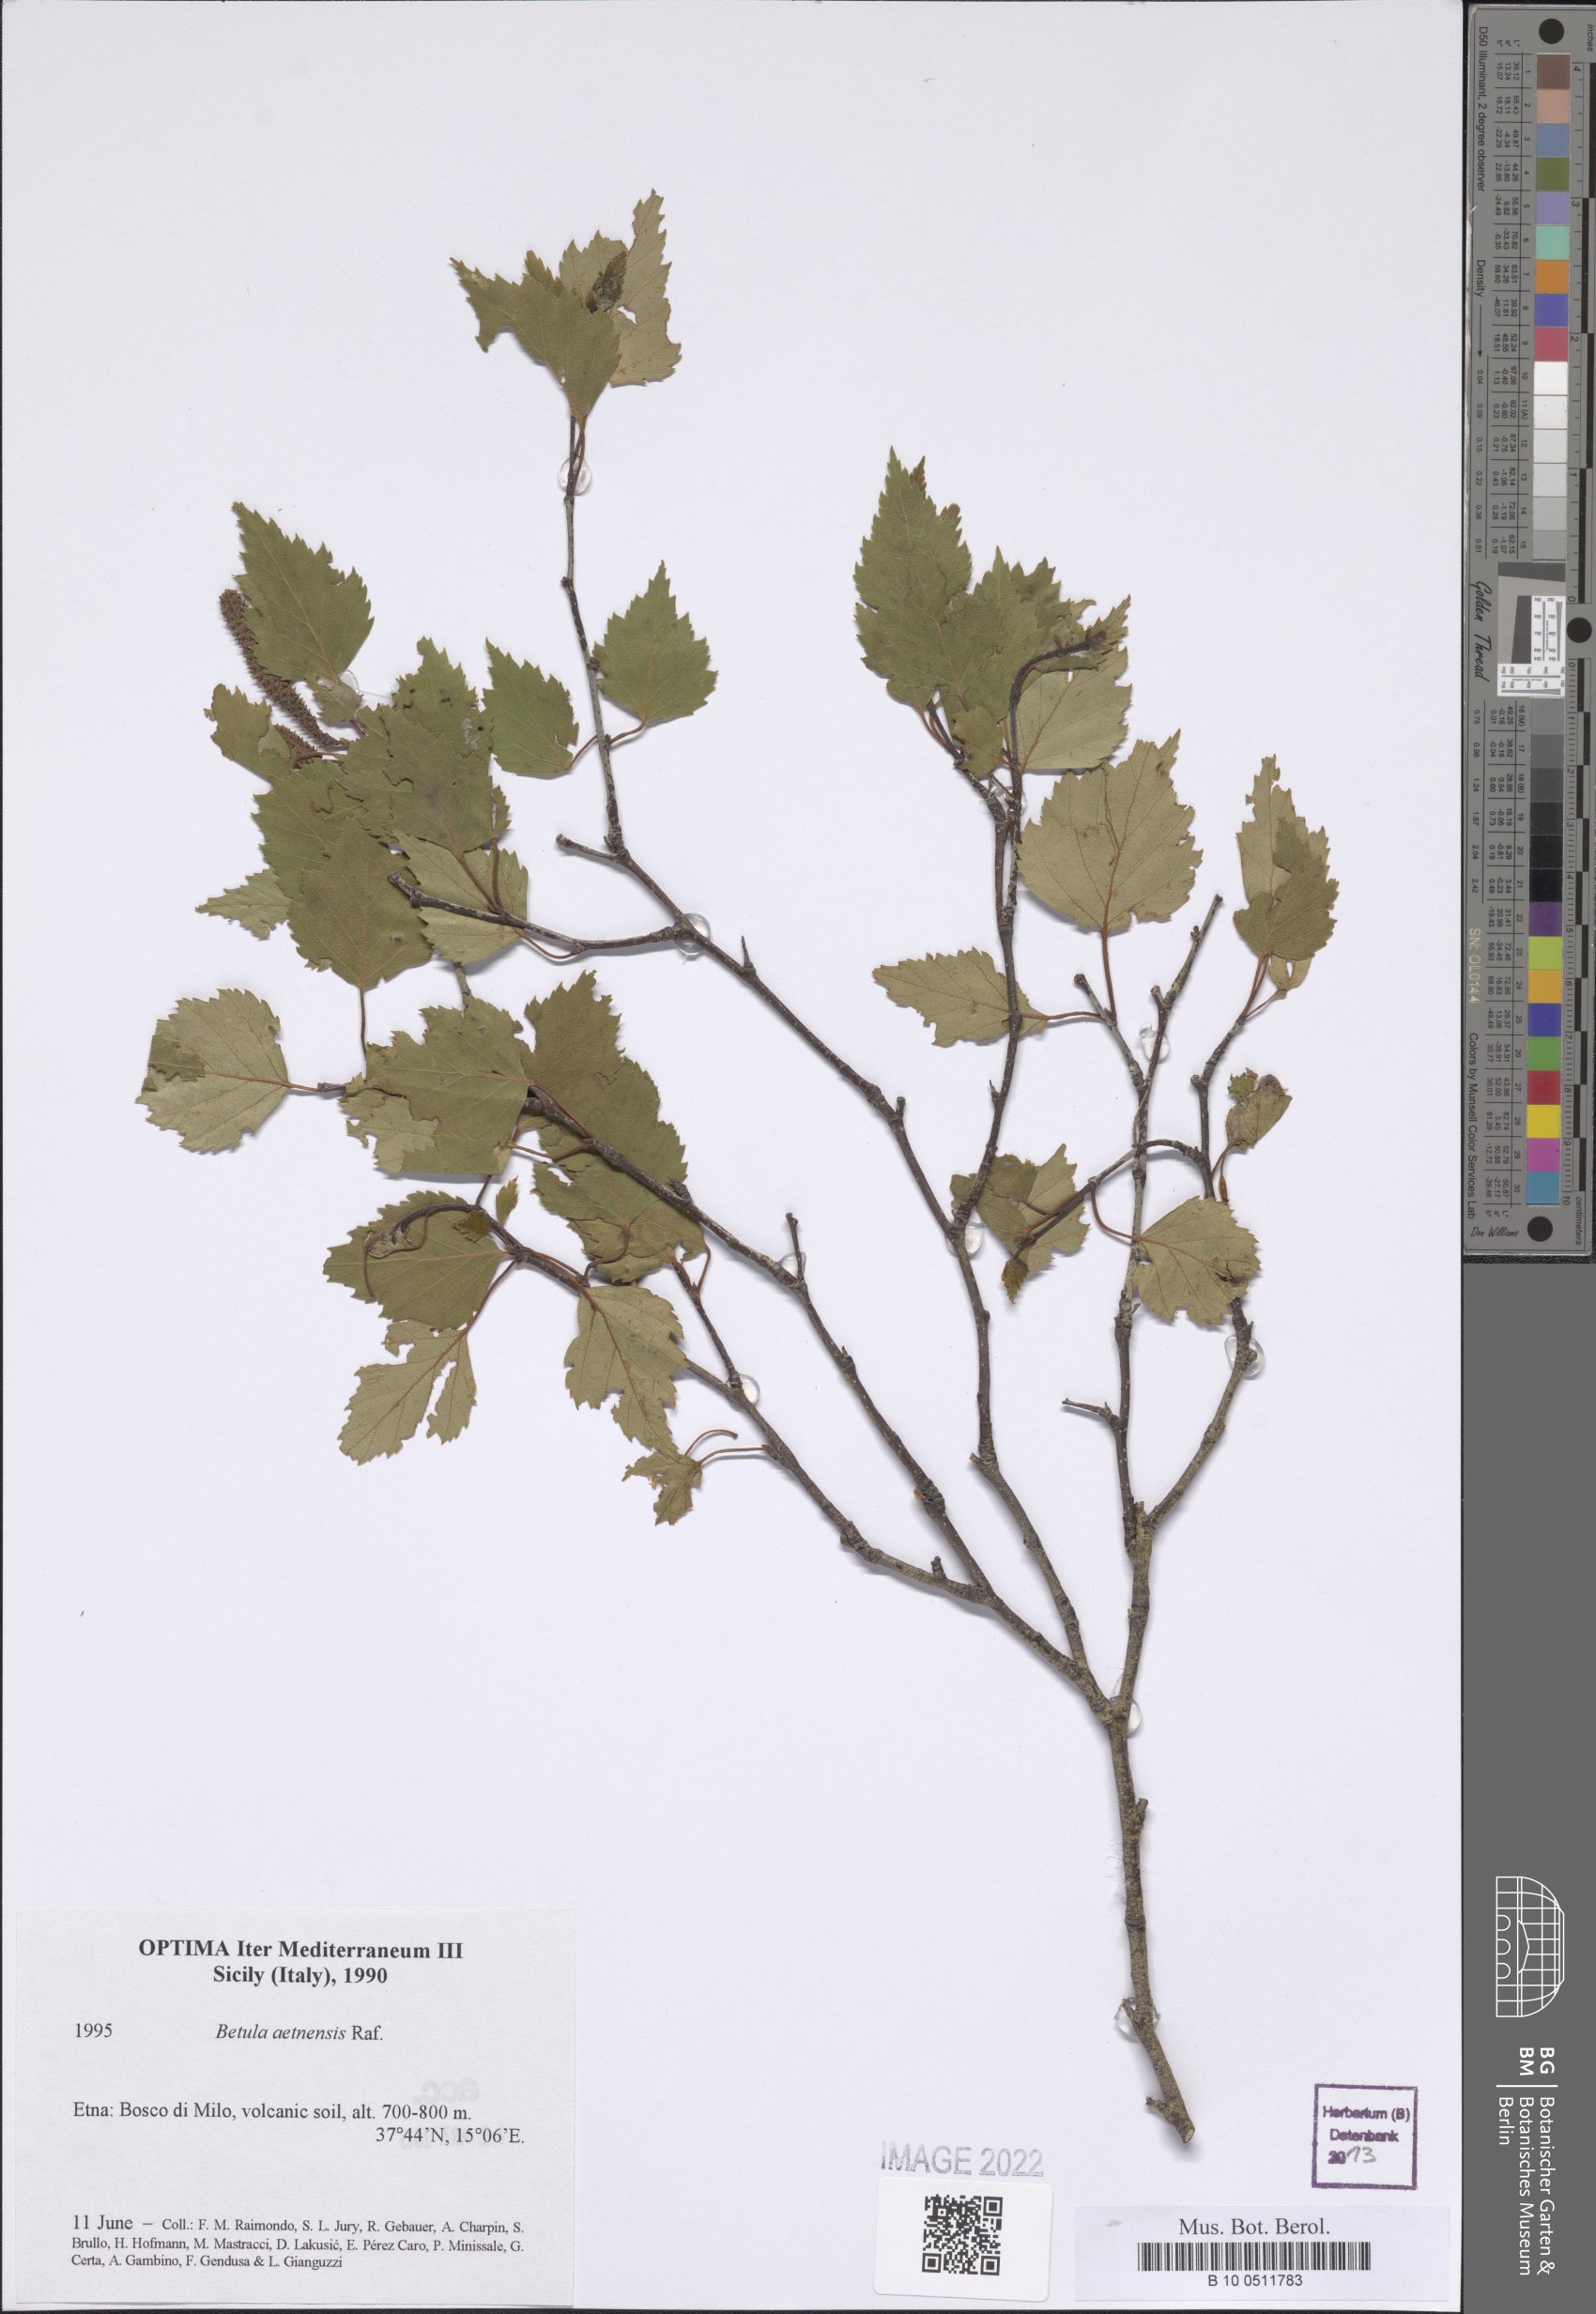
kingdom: Plantae
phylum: Tracheophyta
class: Magnoliopsida
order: Fagales
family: Betulaceae
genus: Betula
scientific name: Betula pendula
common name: Silver birch
